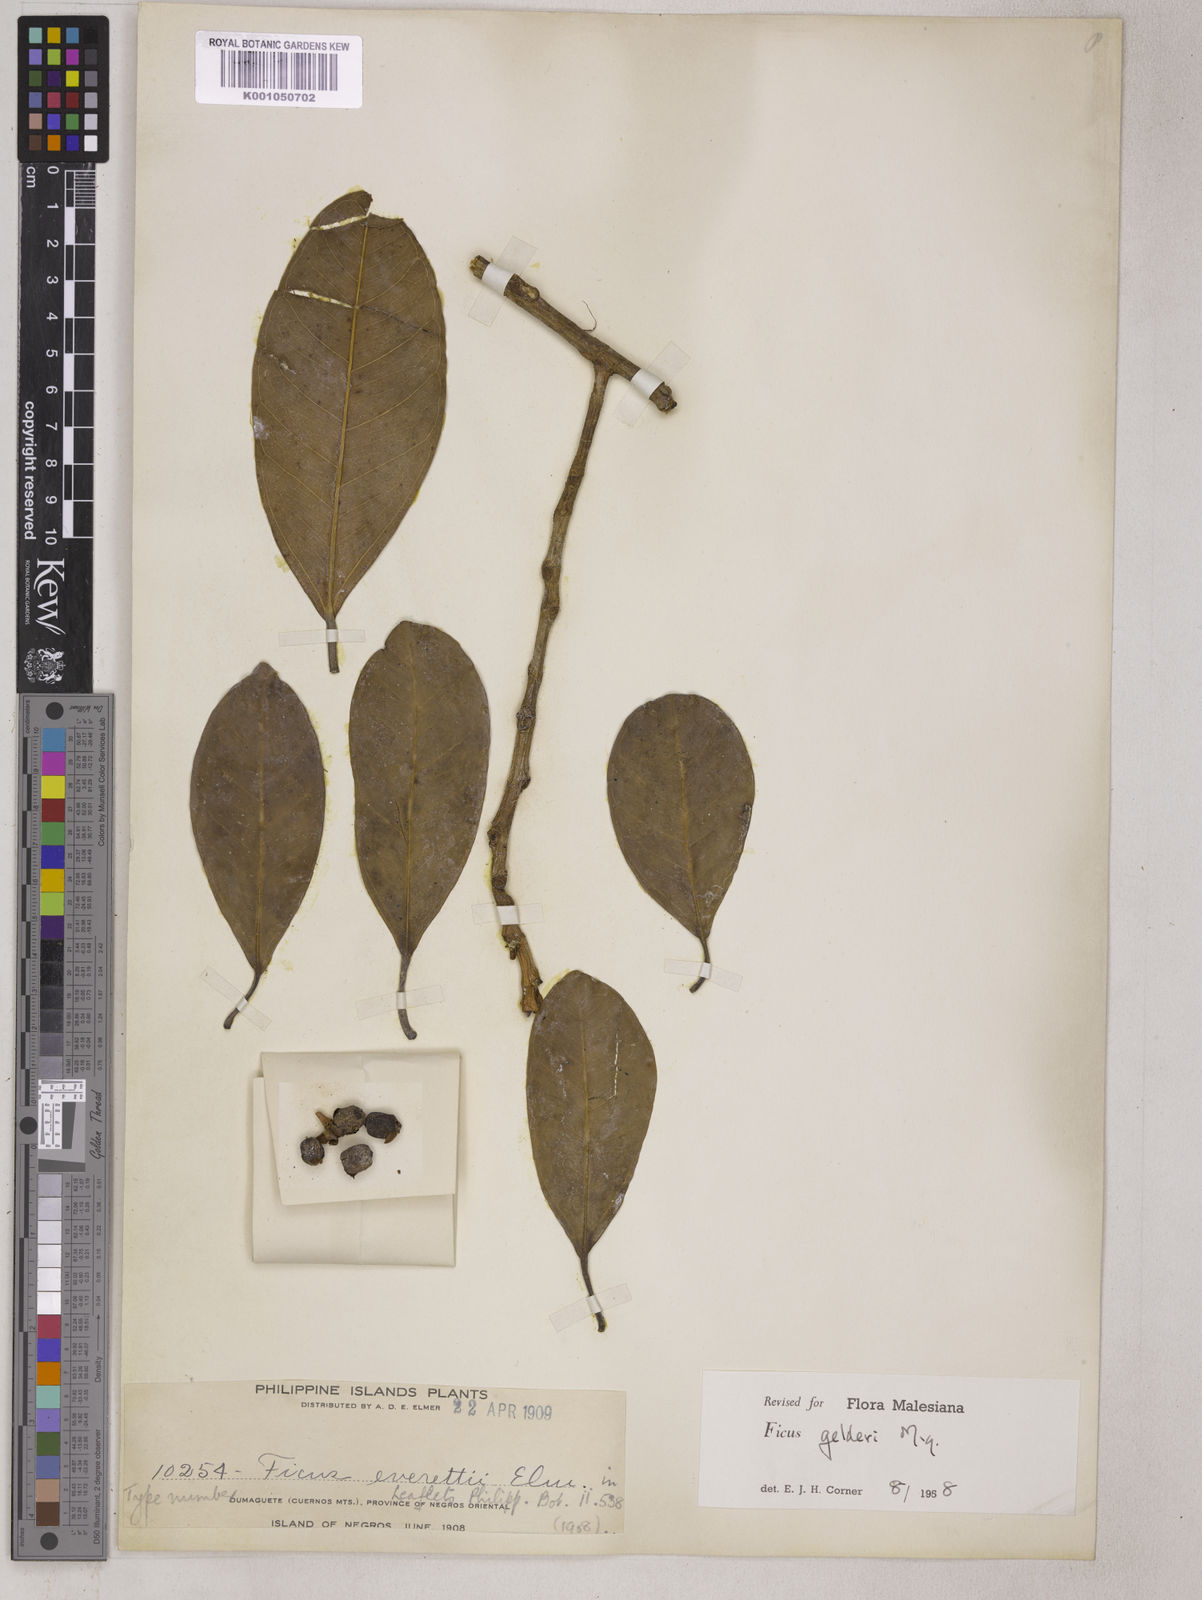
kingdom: Plantae
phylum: Tracheophyta
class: Magnoliopsida
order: Rosales
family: Moraceae
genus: Ficus
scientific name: Ficus pellucidopunctata
